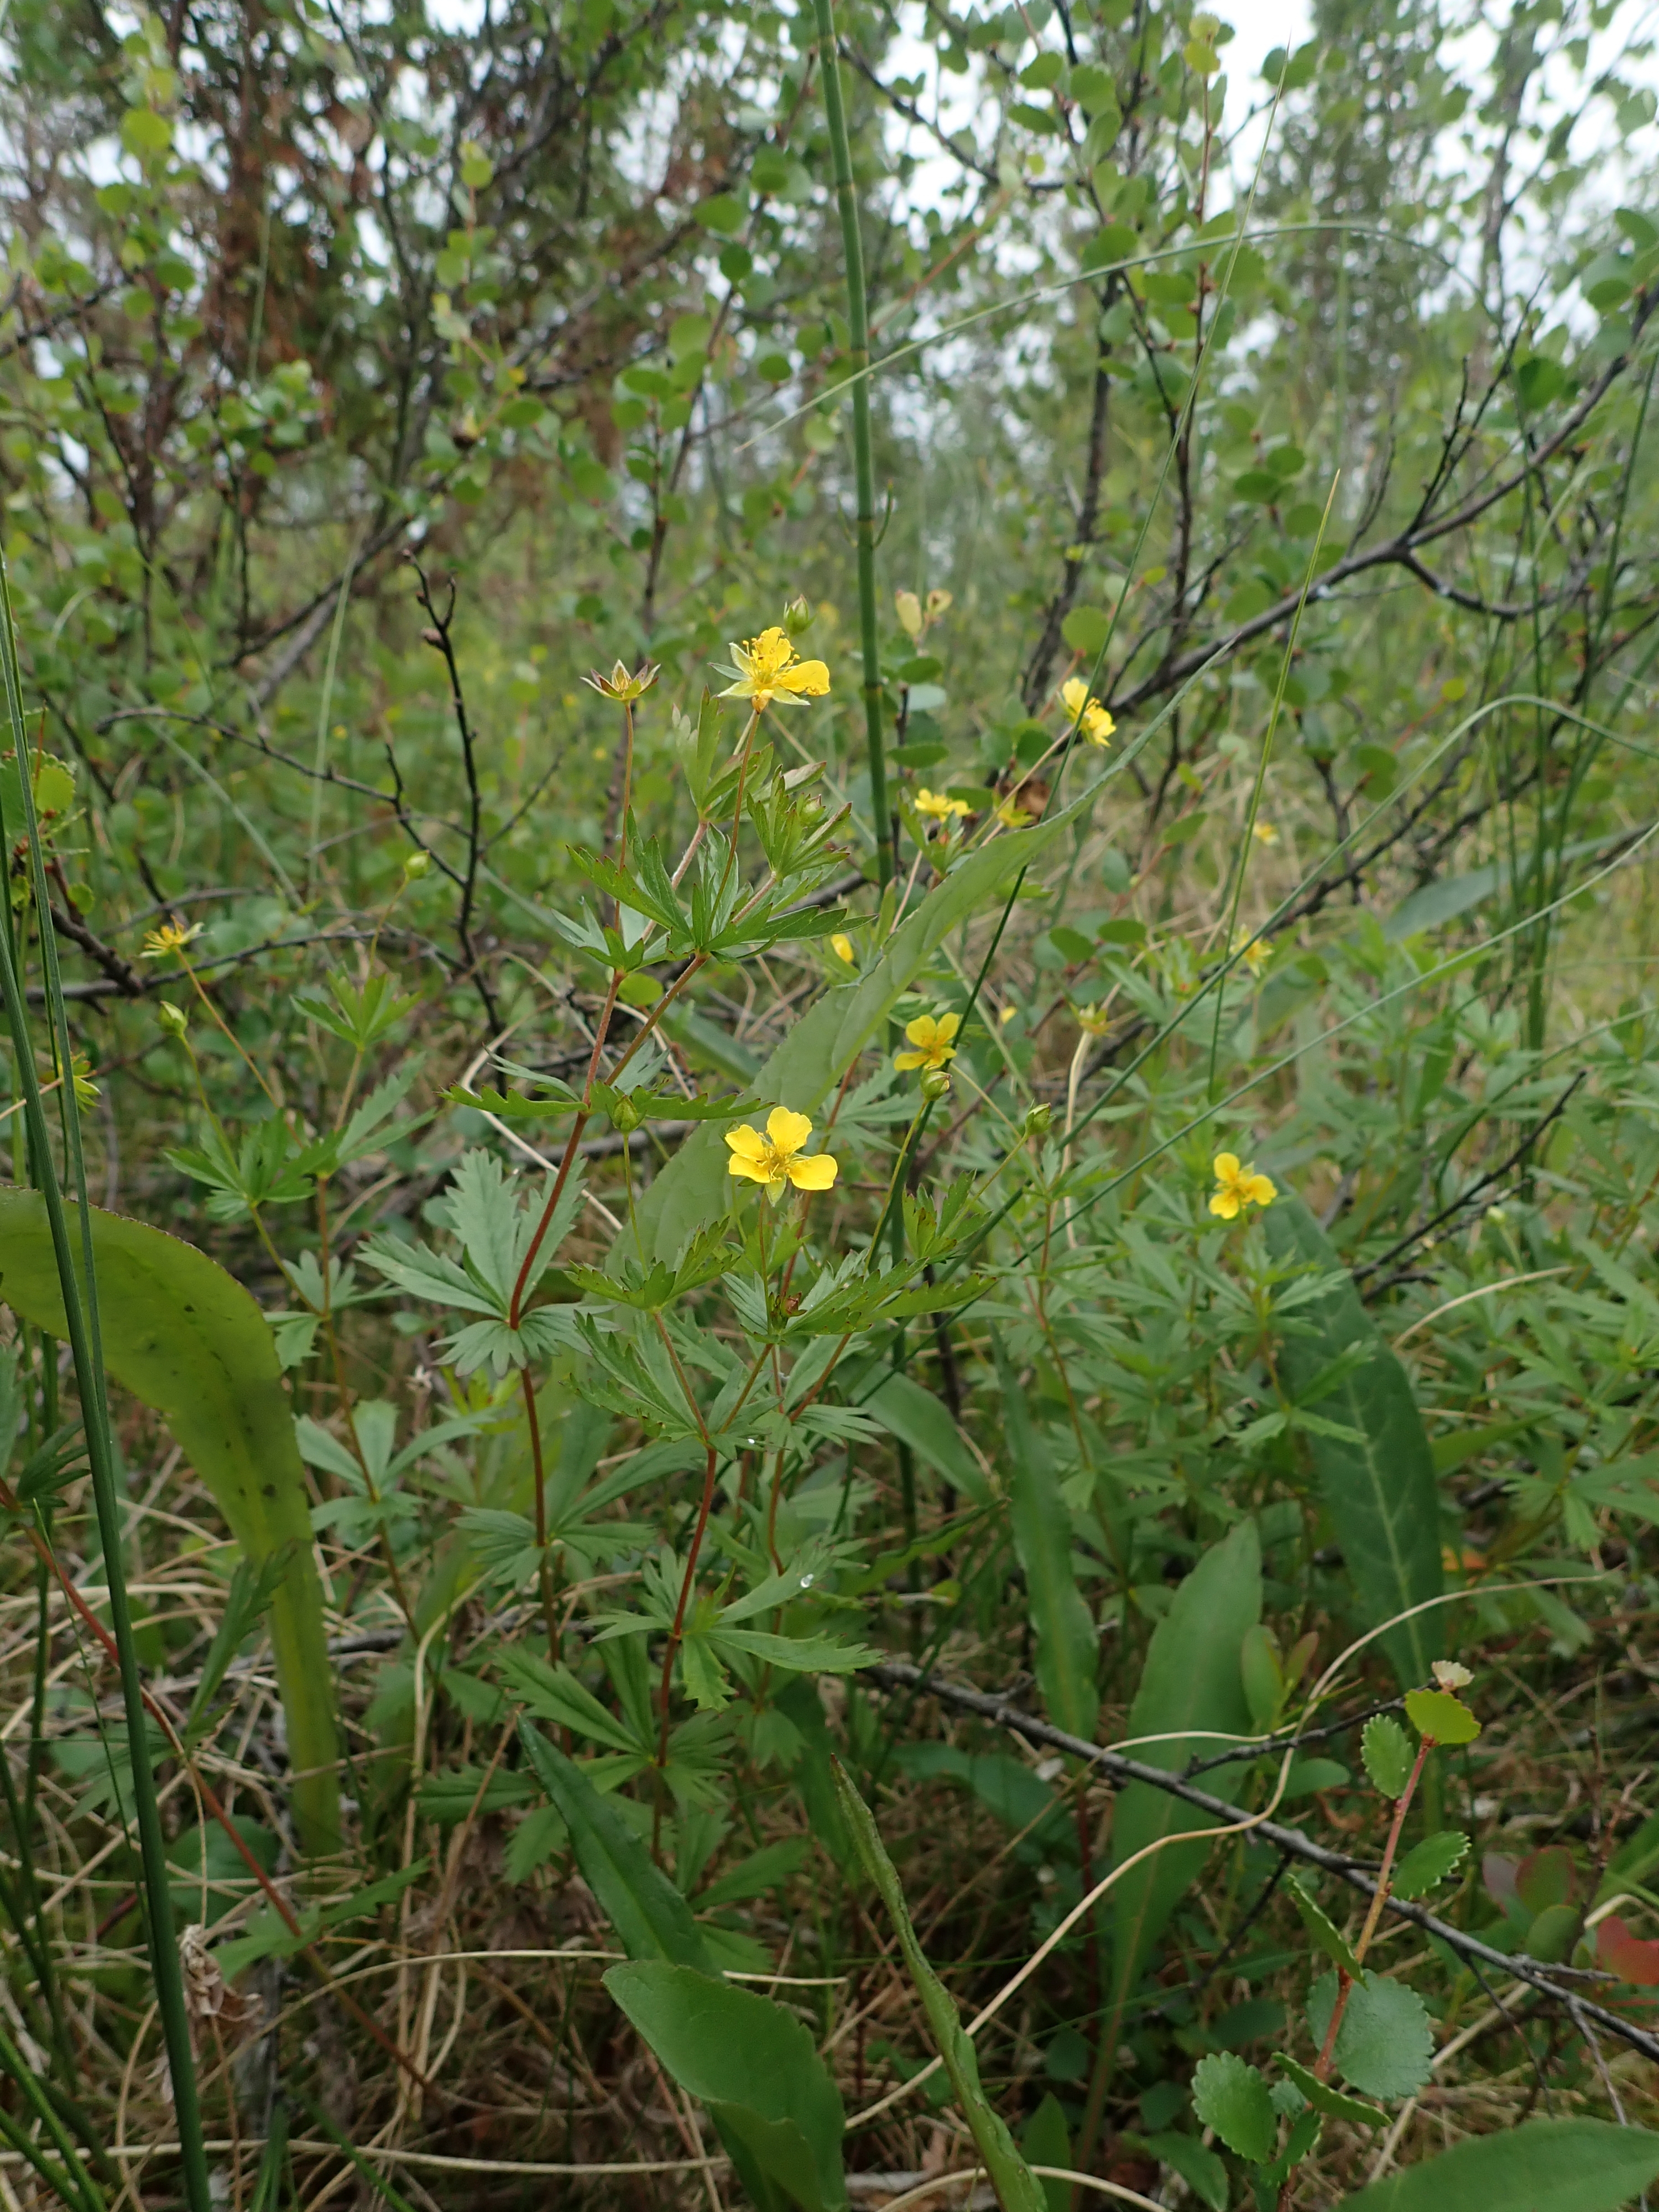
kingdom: Plantae
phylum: Tracheophyta
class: Magnoliopsida
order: Rosales
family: Rosaceae
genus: Potentilla
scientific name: Potentilla erecta
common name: Tormentil
